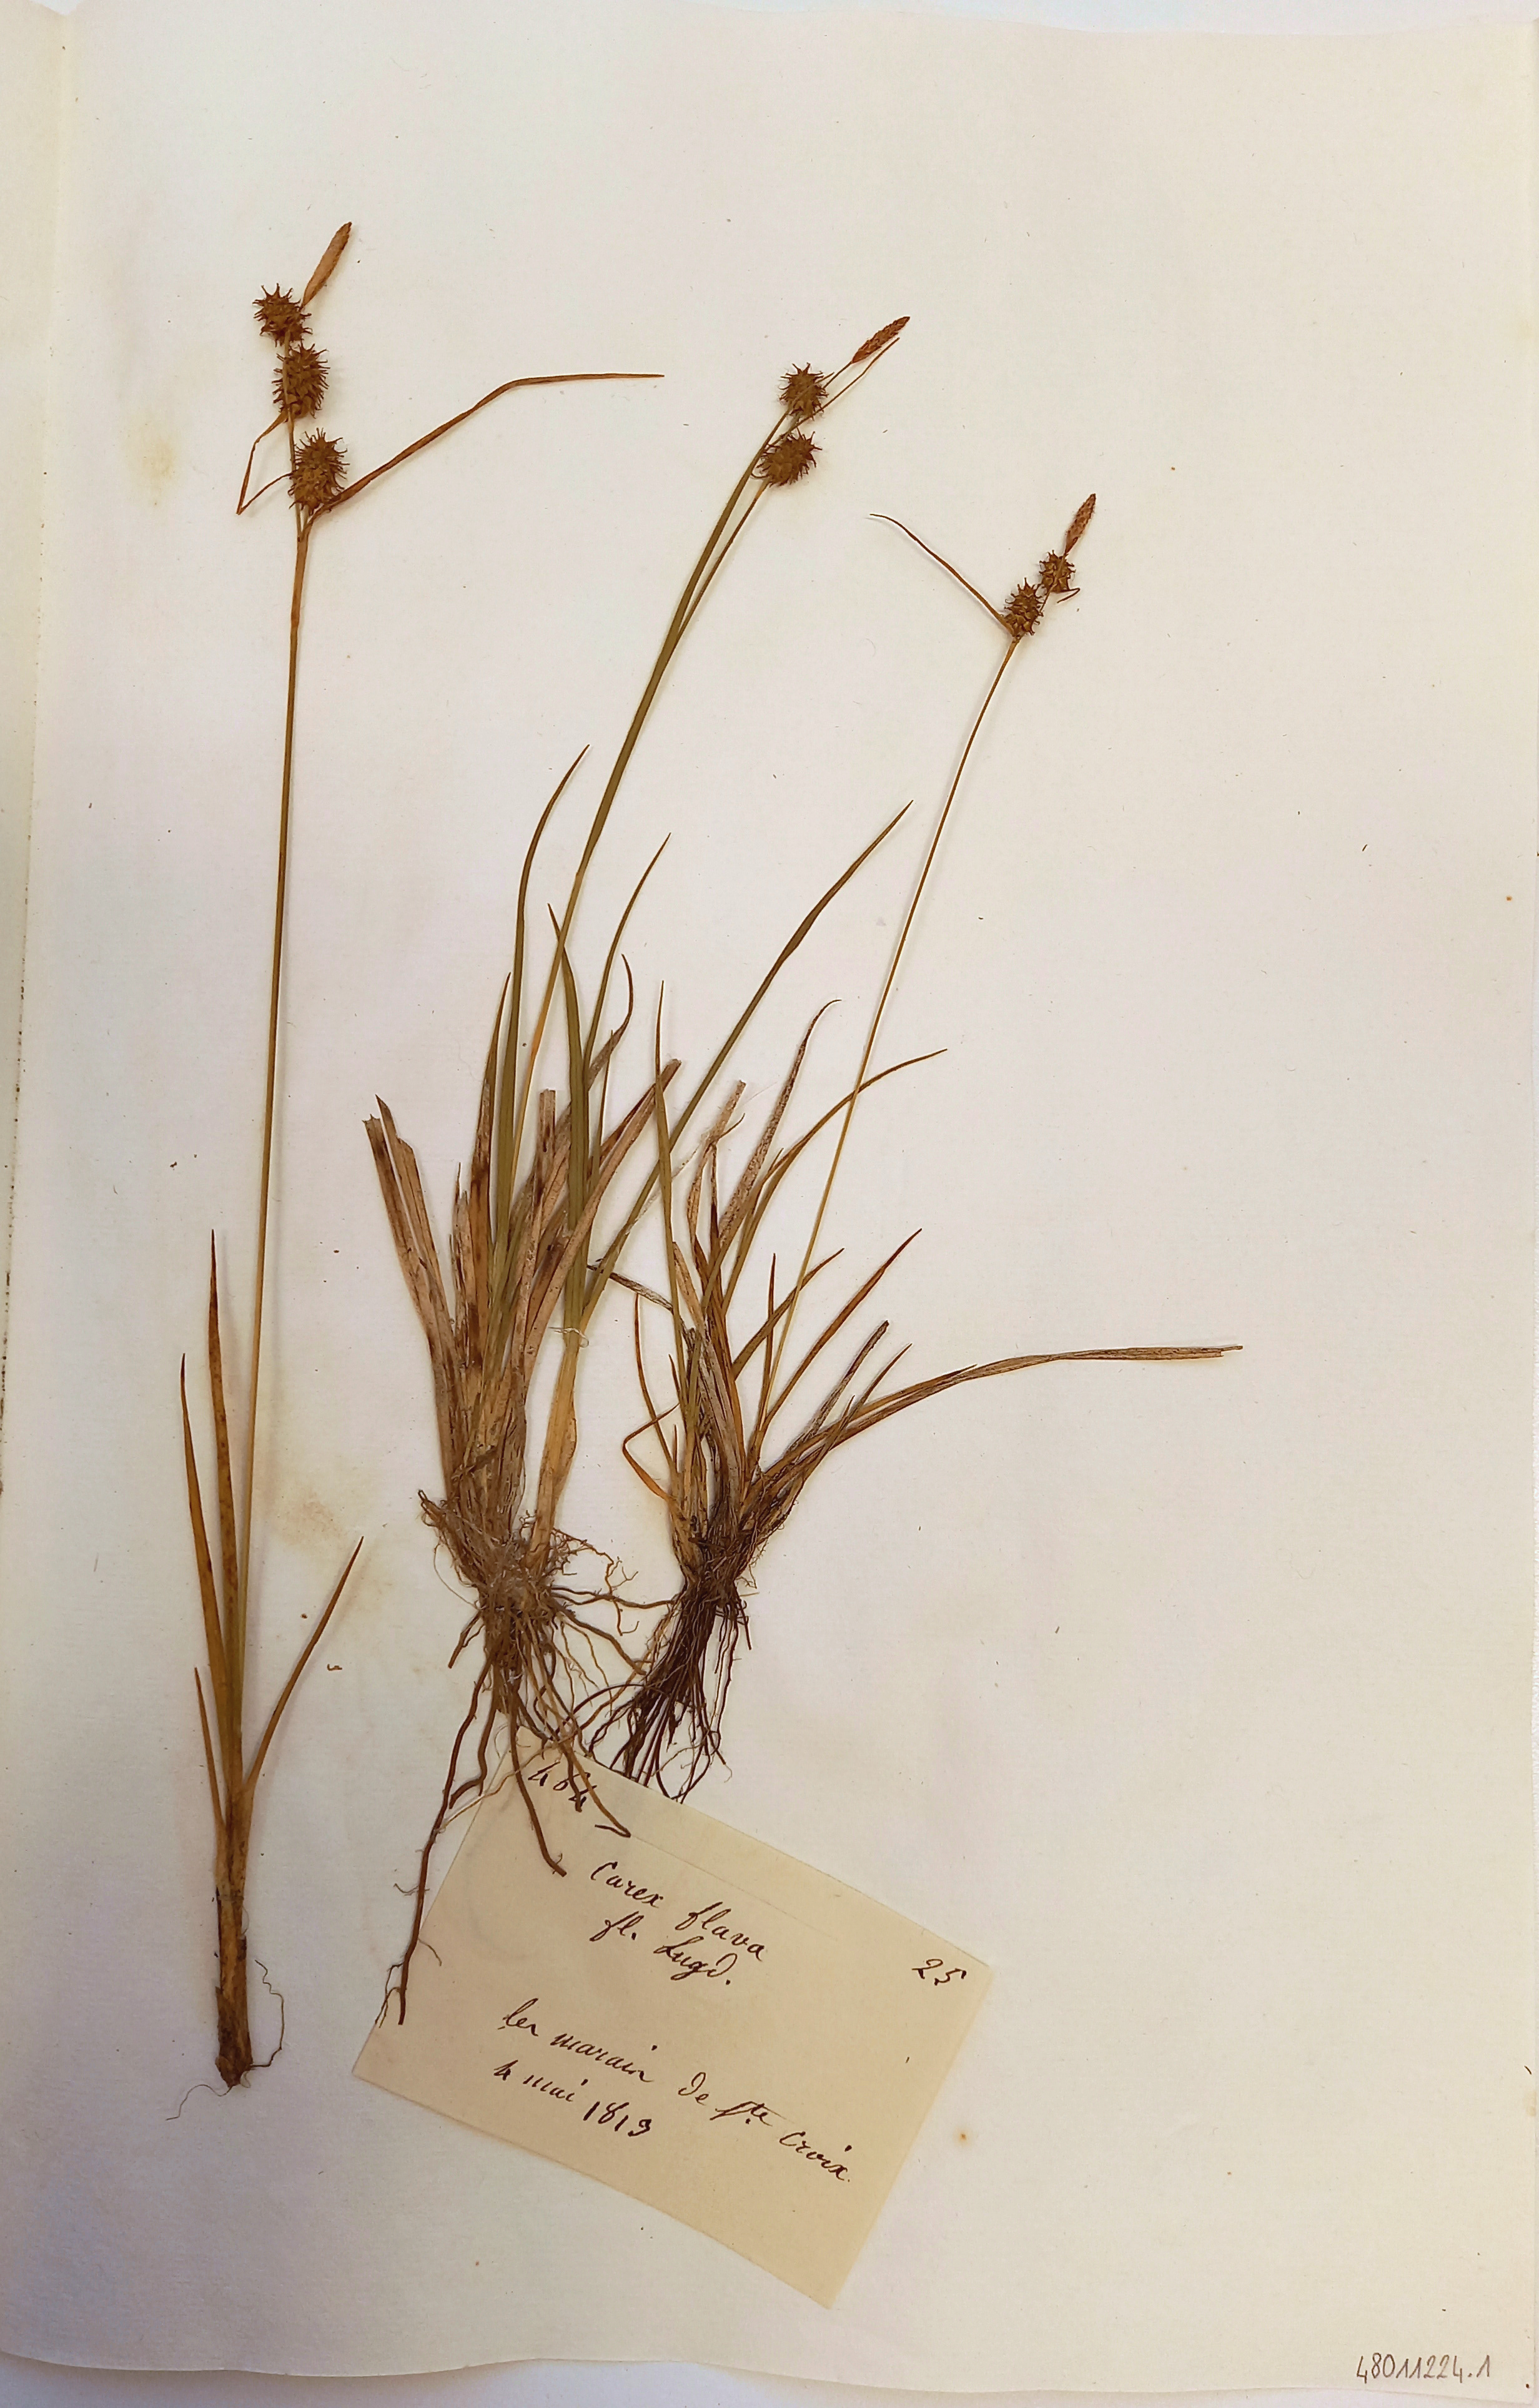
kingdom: Plantae
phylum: Tracheophyta
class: Liliopsida
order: Poales
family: Cyperaceae
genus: Carex
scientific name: Carex flava
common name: Large yellow-sedge
